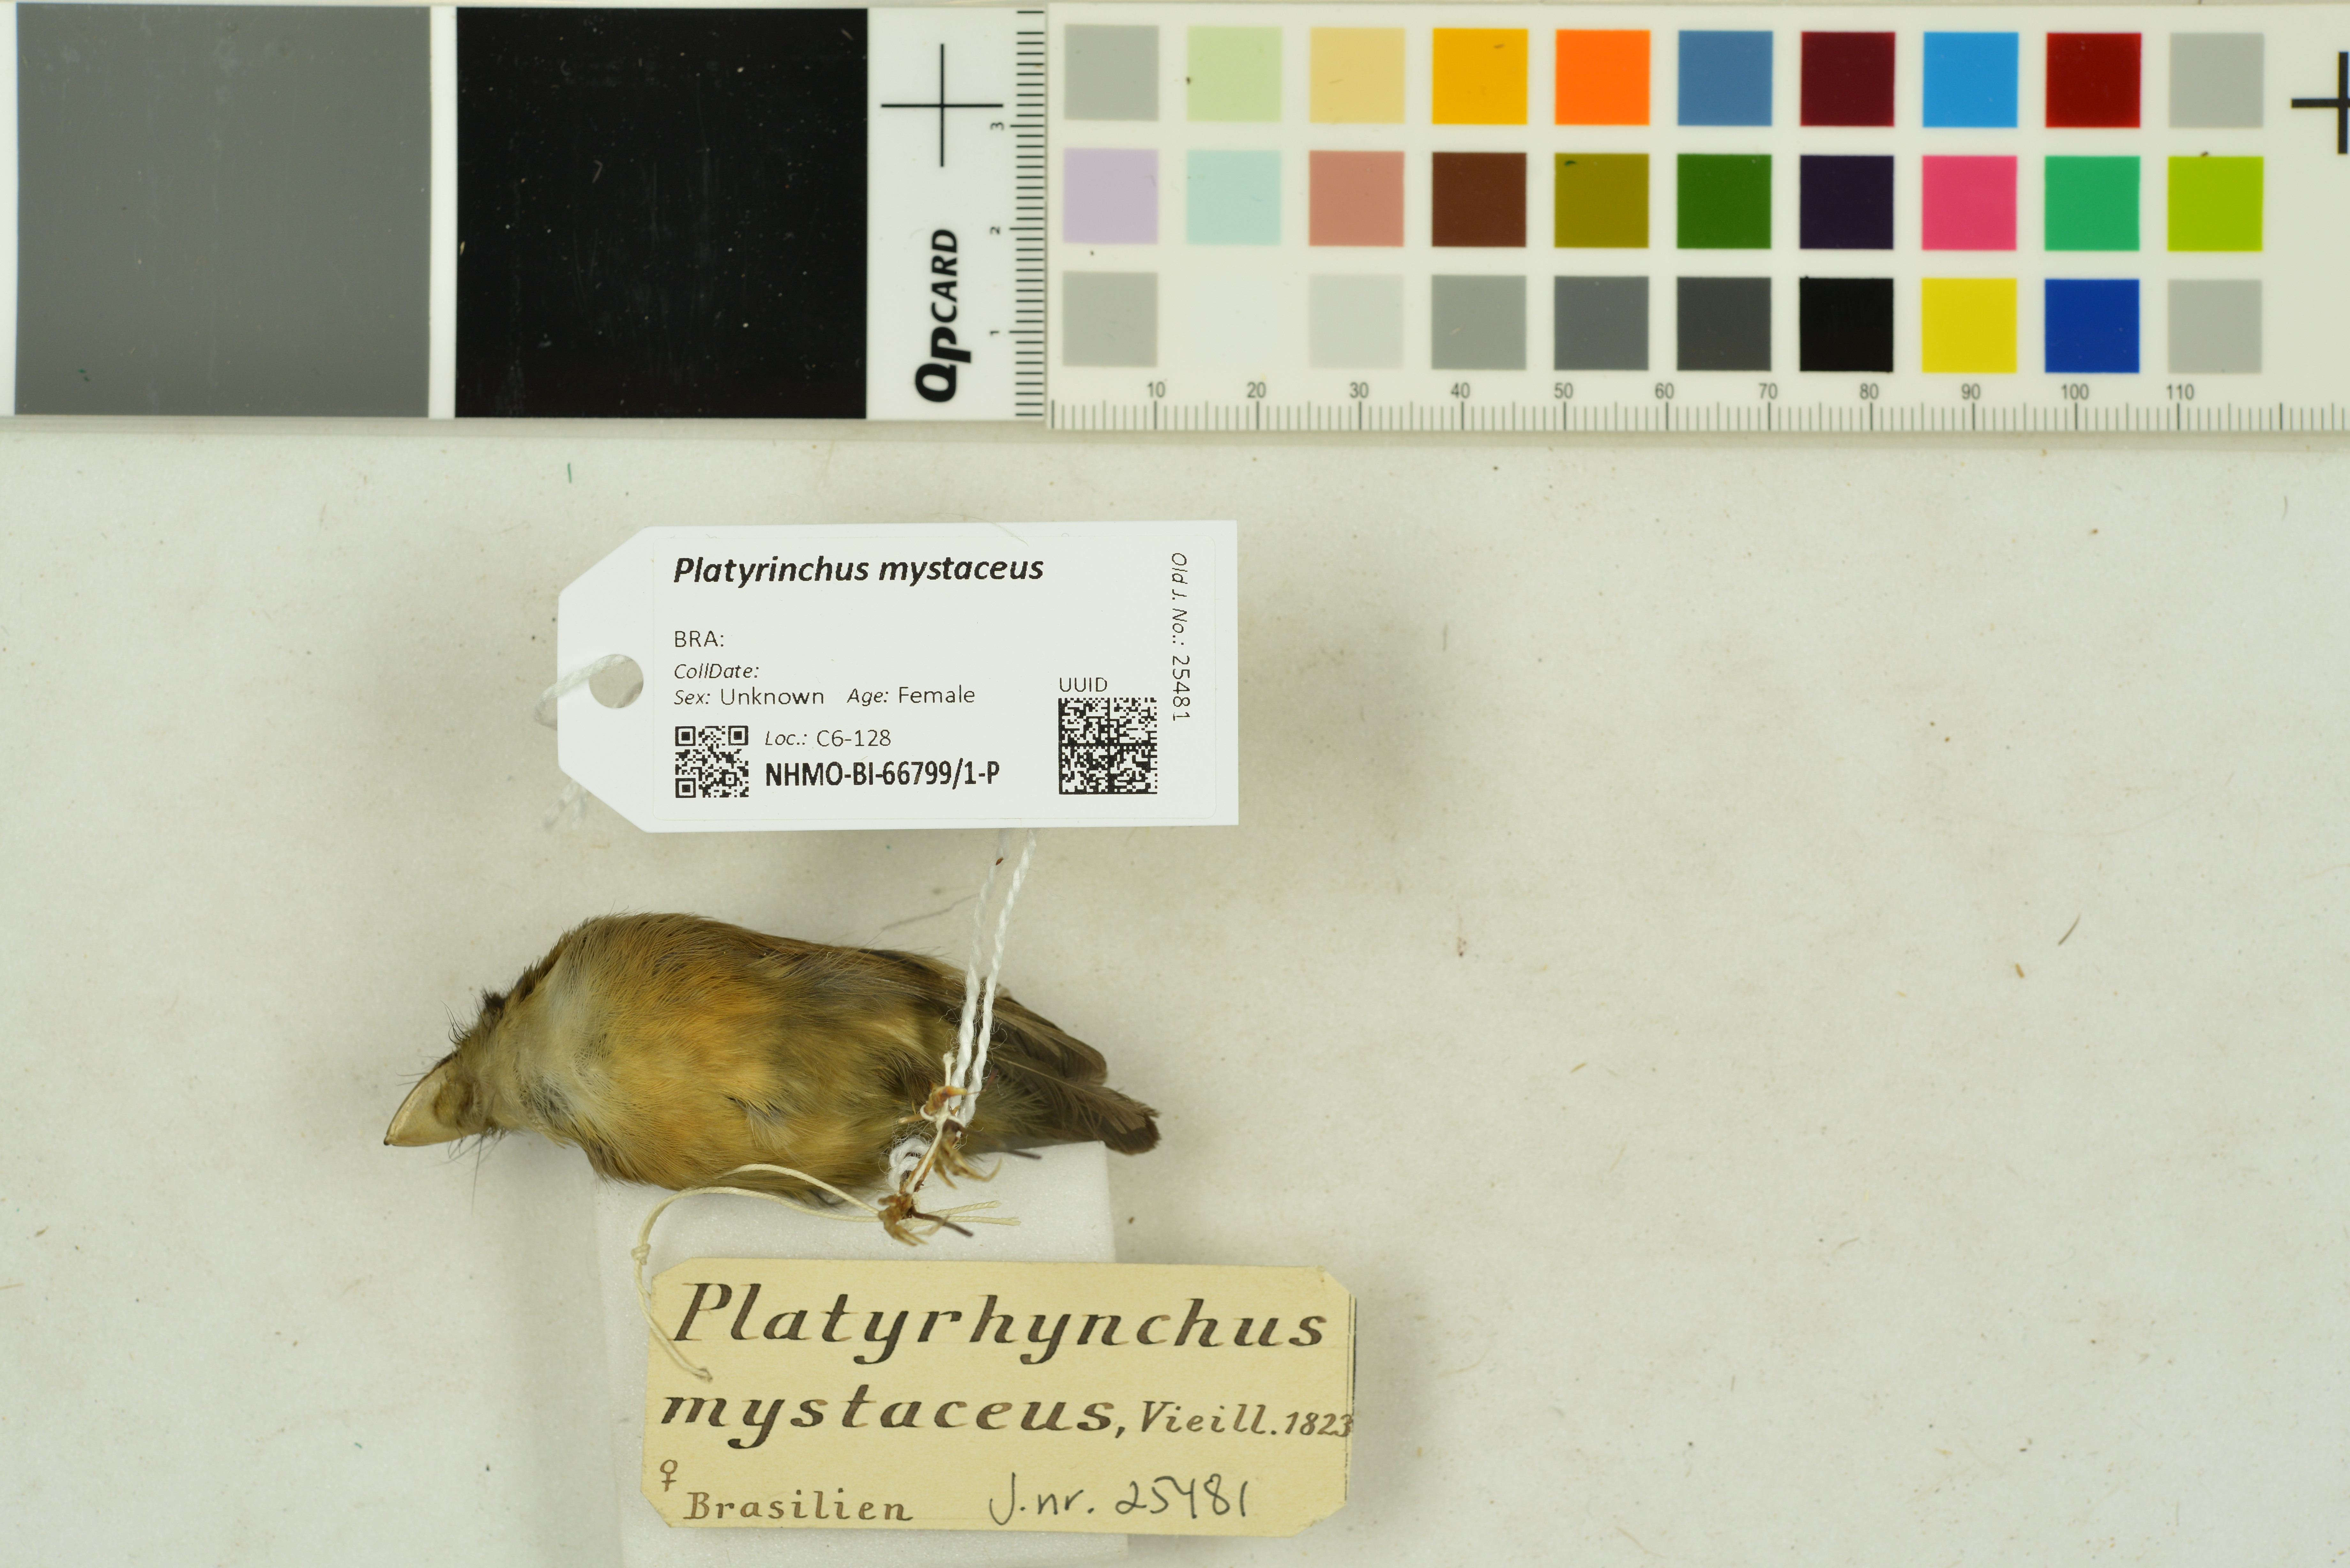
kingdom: Animalia
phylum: Chordata
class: Aves
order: Passeriformes
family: Tyrannidae
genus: Platyrinchus
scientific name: Platyrinchus mystaceus
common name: White-throated spadebill
